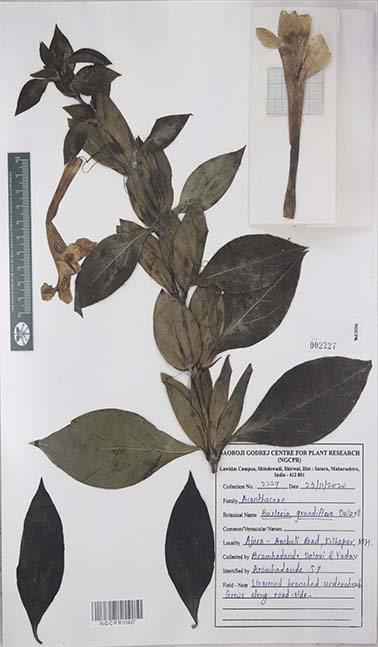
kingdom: Plantae
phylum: Tracheophyta
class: Magnoliopsida
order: Lamiales
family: Acanthaceae
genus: Barleria
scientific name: Barleria grandiflora
